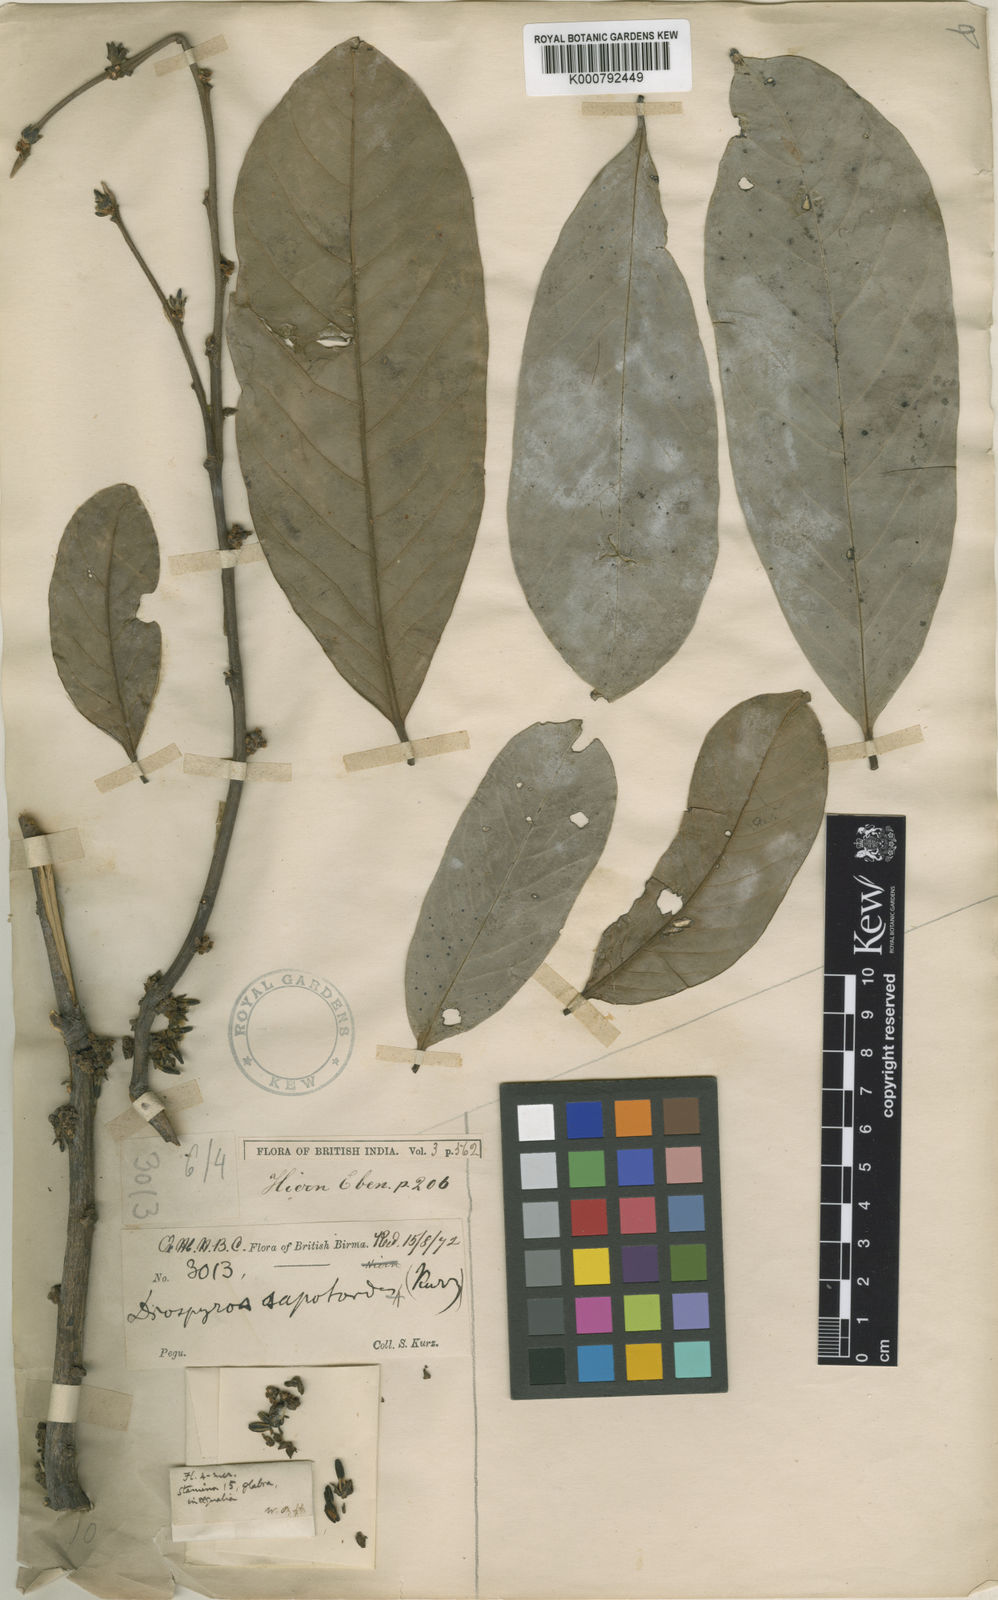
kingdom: Plantae
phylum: Tracheophyta
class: Magnoliopsida
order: Ericales
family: Ebenaceae
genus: Diospyros
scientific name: Diospyros oblonga
